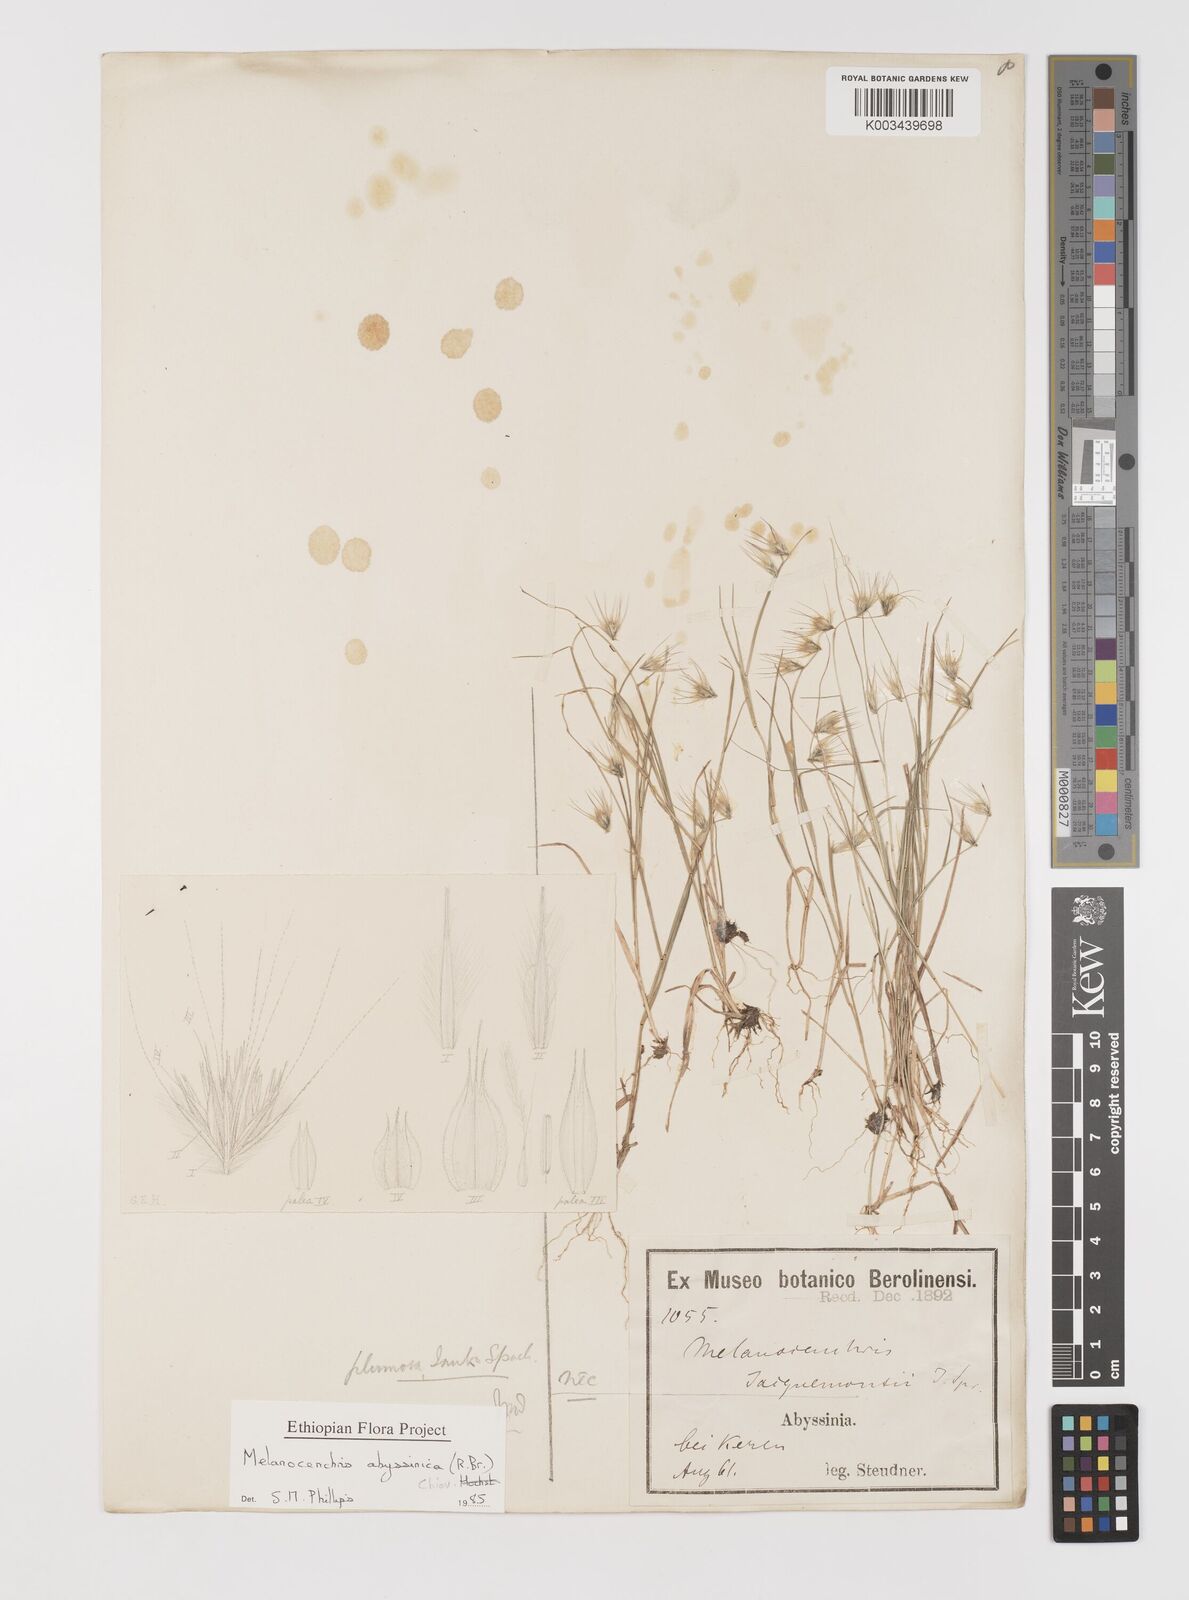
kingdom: Plantae
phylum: Tracheophyta
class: Liliopsida
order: Poales
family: Poaceae
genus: Melanocenchris
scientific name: Melanocenchris abyssinica
